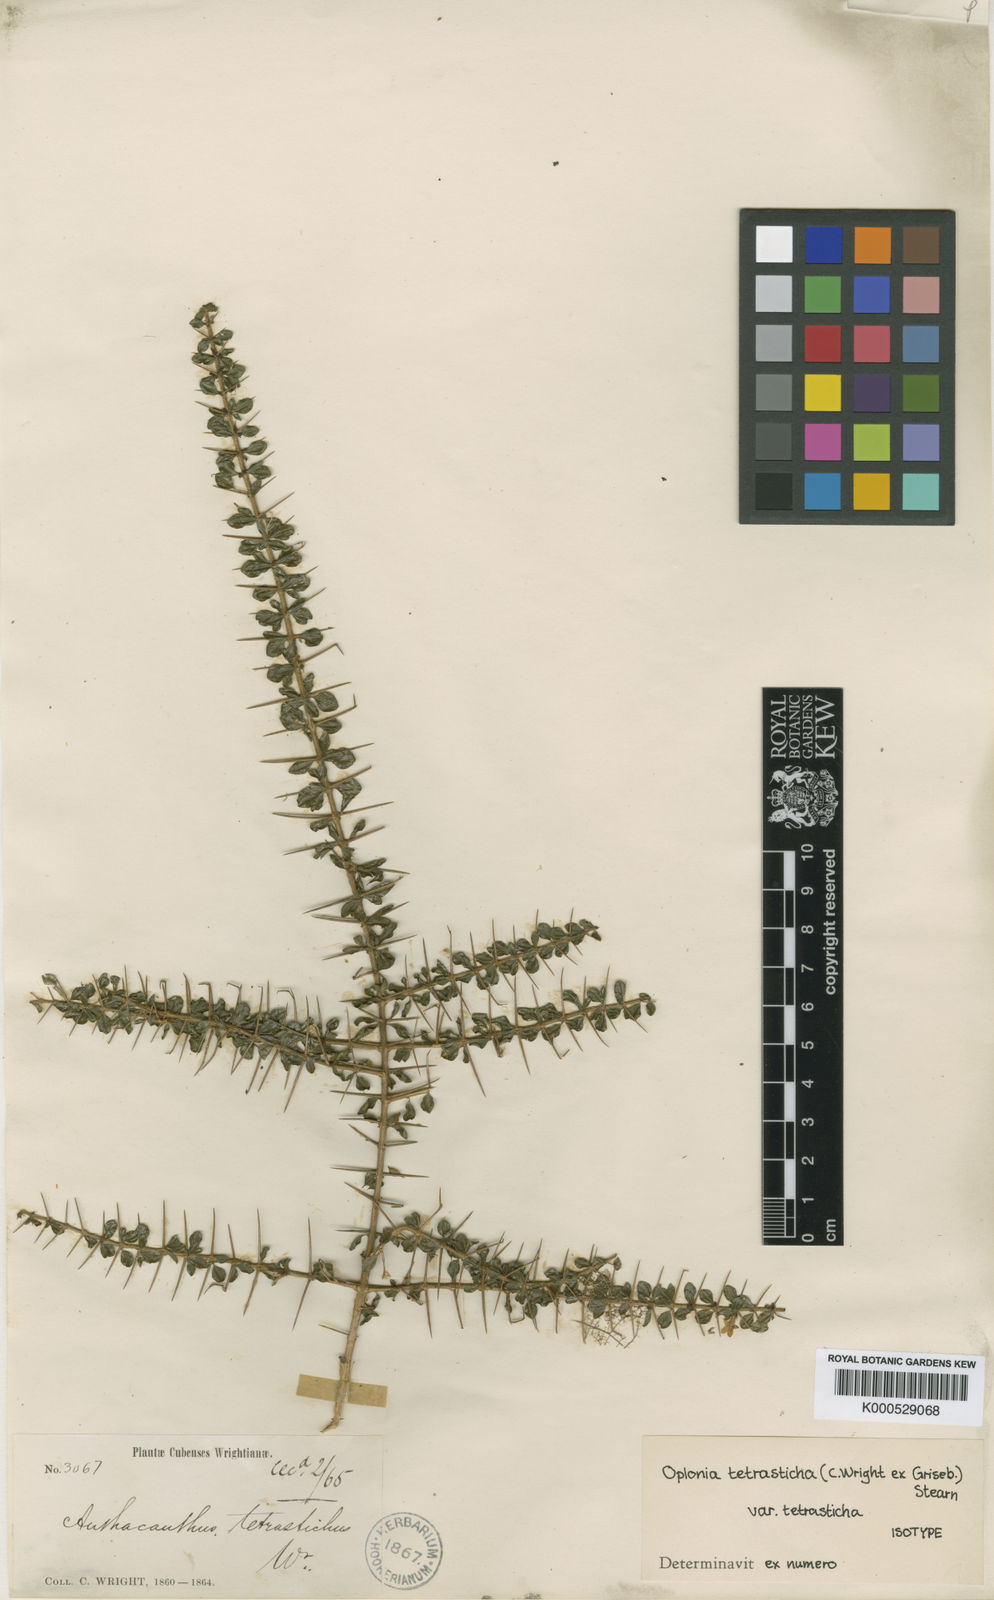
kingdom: Plantae
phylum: Tracheophyta
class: Magnoliopsida
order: Lamiales
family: Acanthaceae
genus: Oplonia
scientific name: Oplonia tetrasticha
